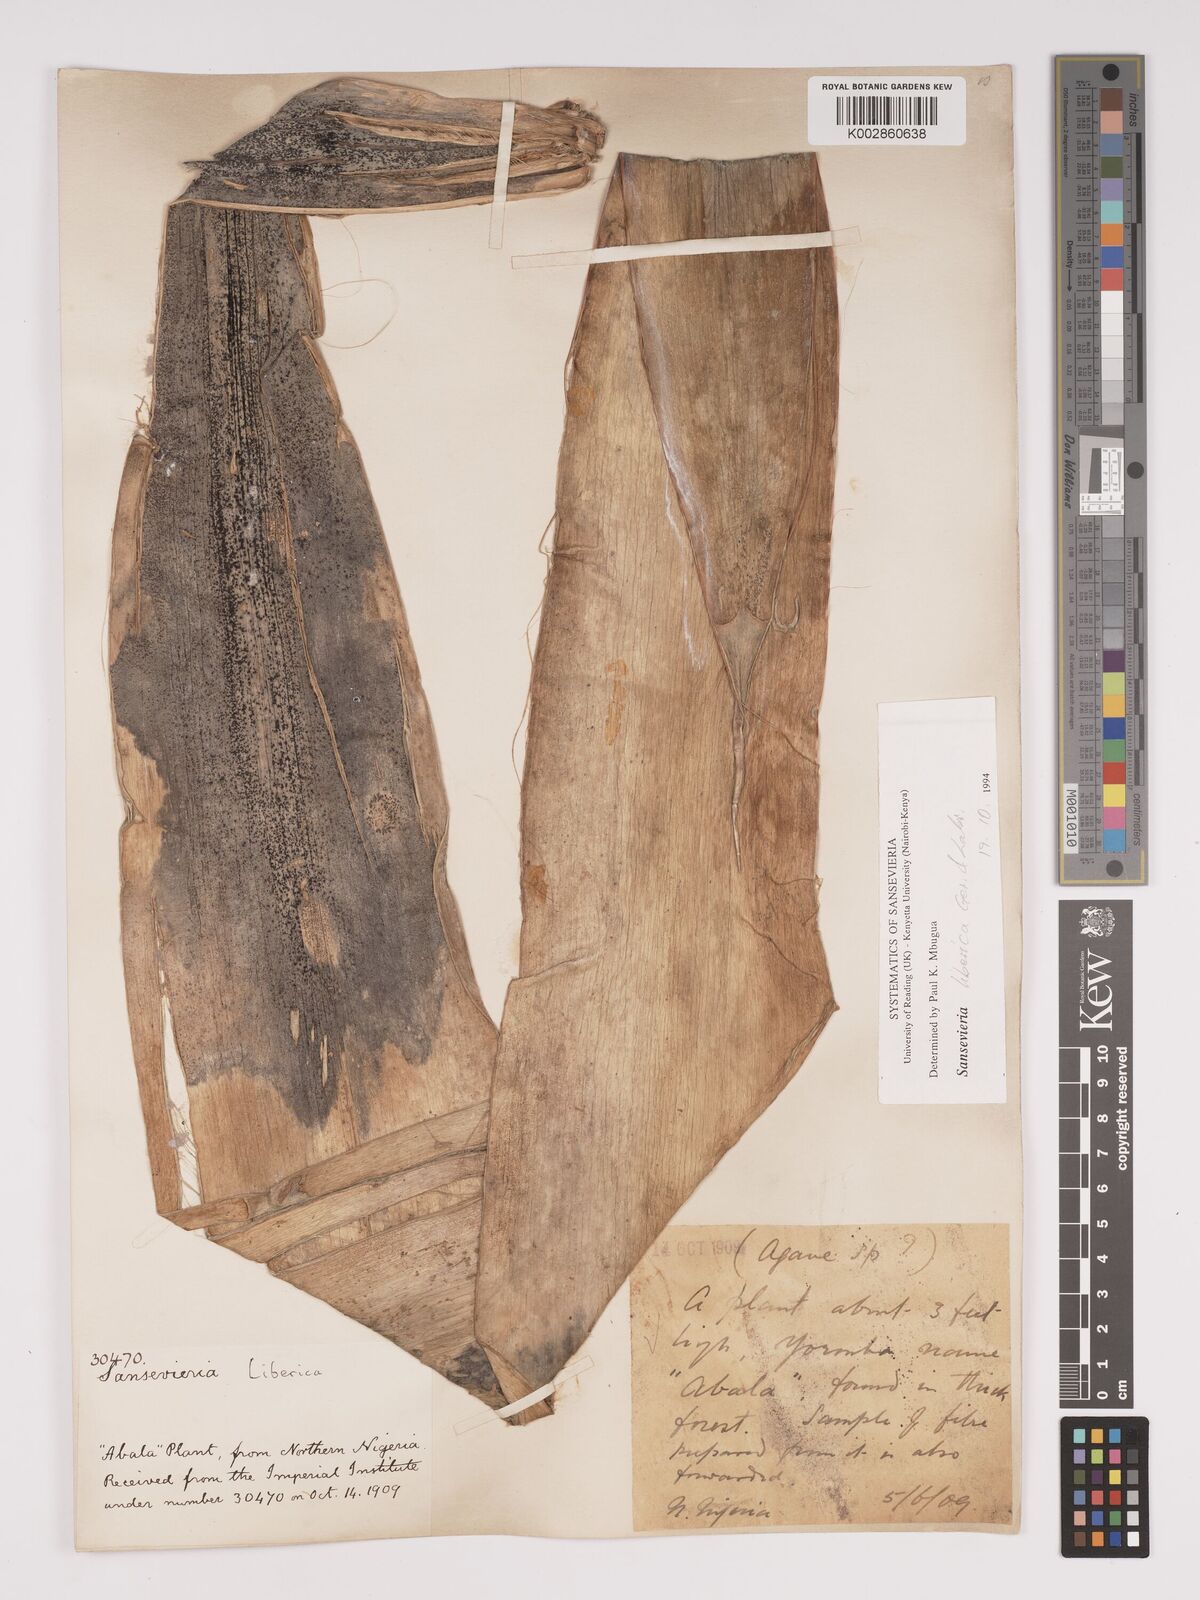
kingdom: Plantae
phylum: Tracheophyta
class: Liliopsida
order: Asparagales
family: Asparagaceae
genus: Dracaena
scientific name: Dracaena liberica
